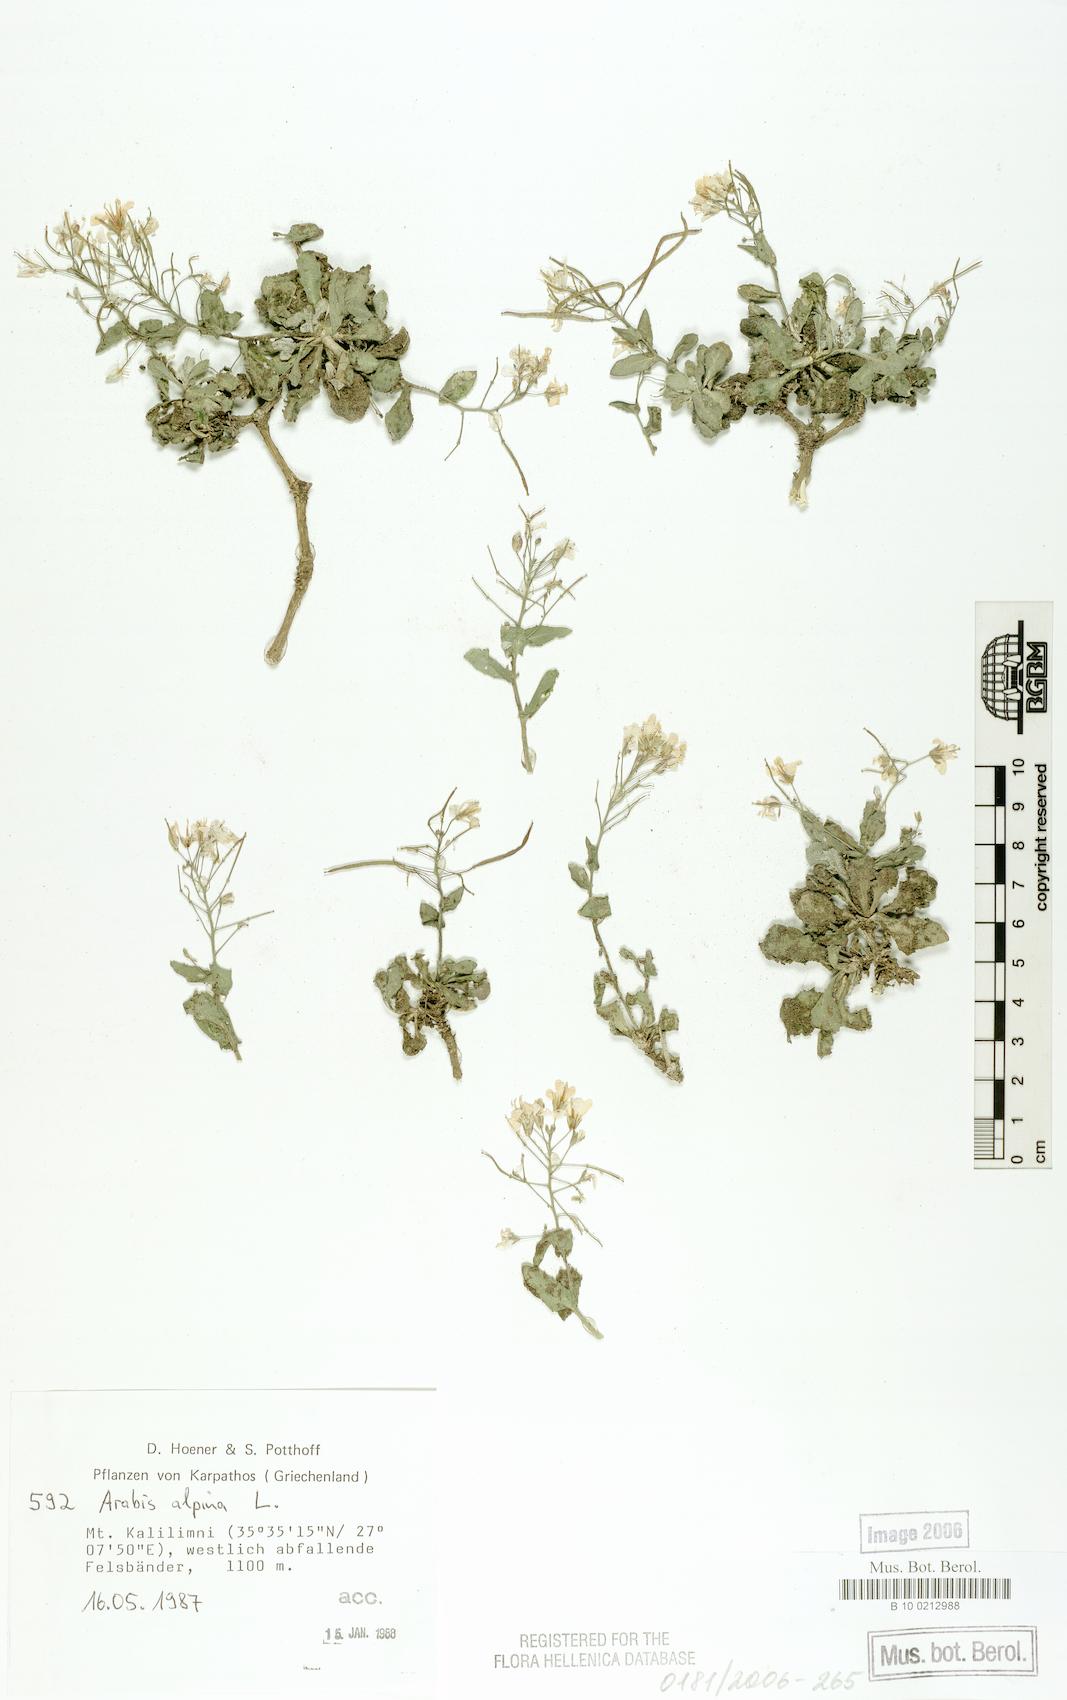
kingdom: Plantae
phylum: Tracheophyta
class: Magnoliopsida
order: Brassicales
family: Brassicaceae
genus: Arabis
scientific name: Arabis alpina
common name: Alpine rock-cress
